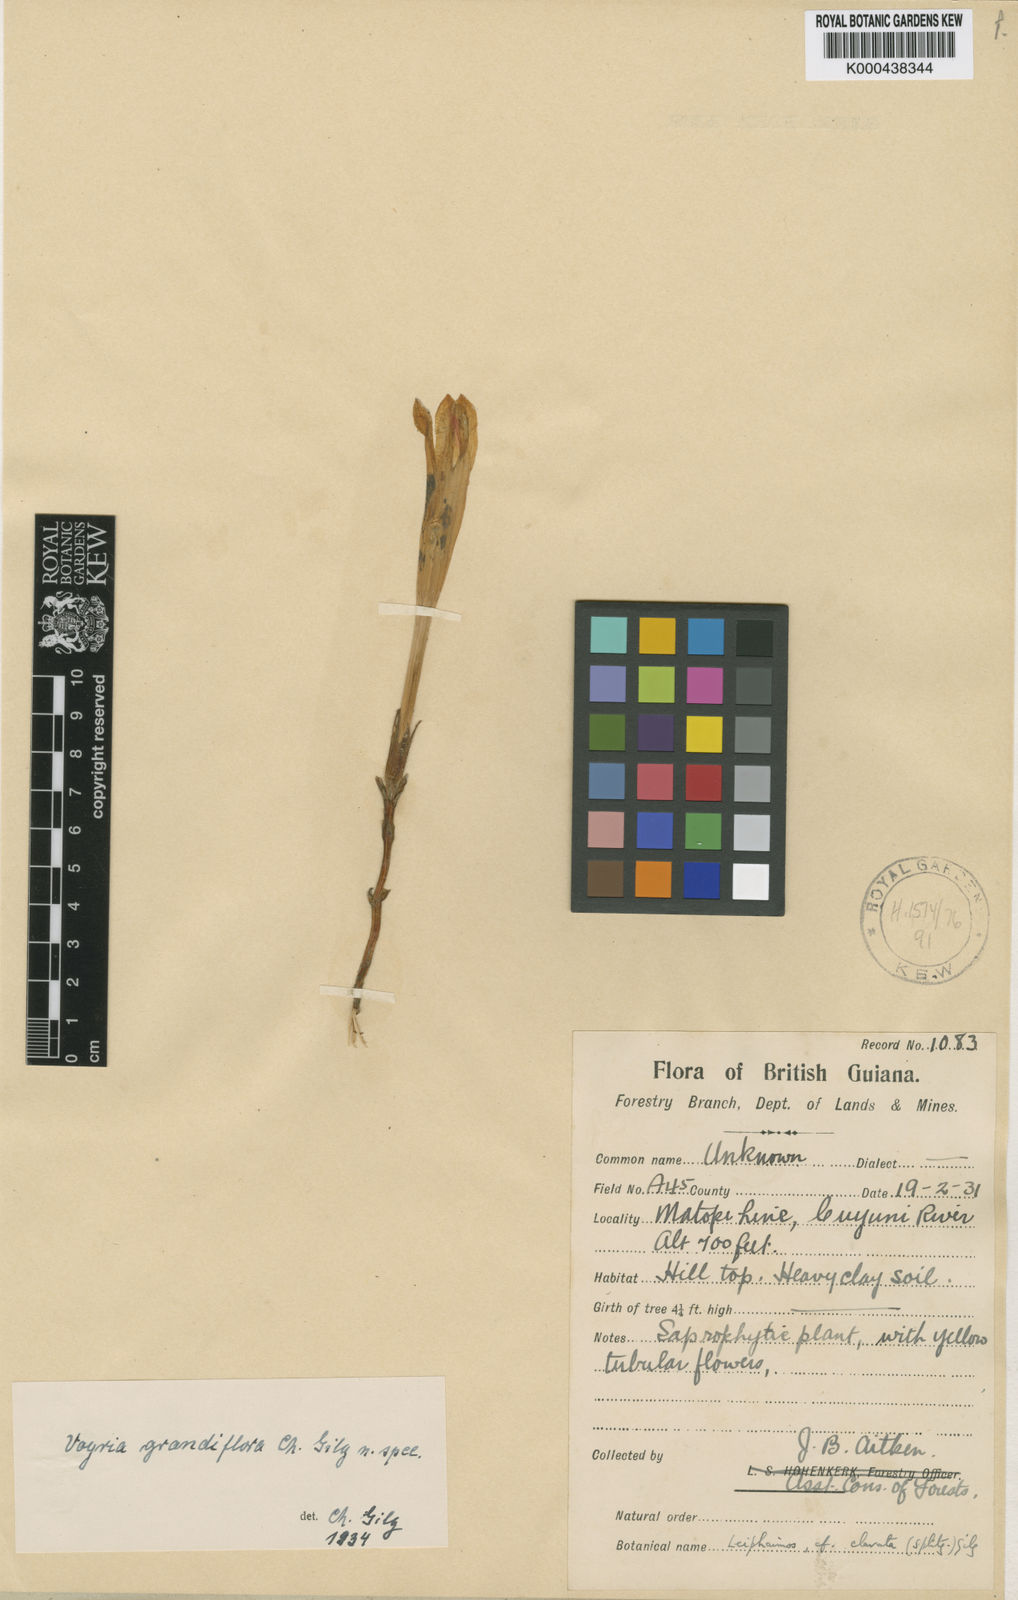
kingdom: Plantae
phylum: Tracheophyta
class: Magnoliopsida
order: Gentianales
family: Gentianaceae
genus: Voyria
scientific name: Voyria clavata
